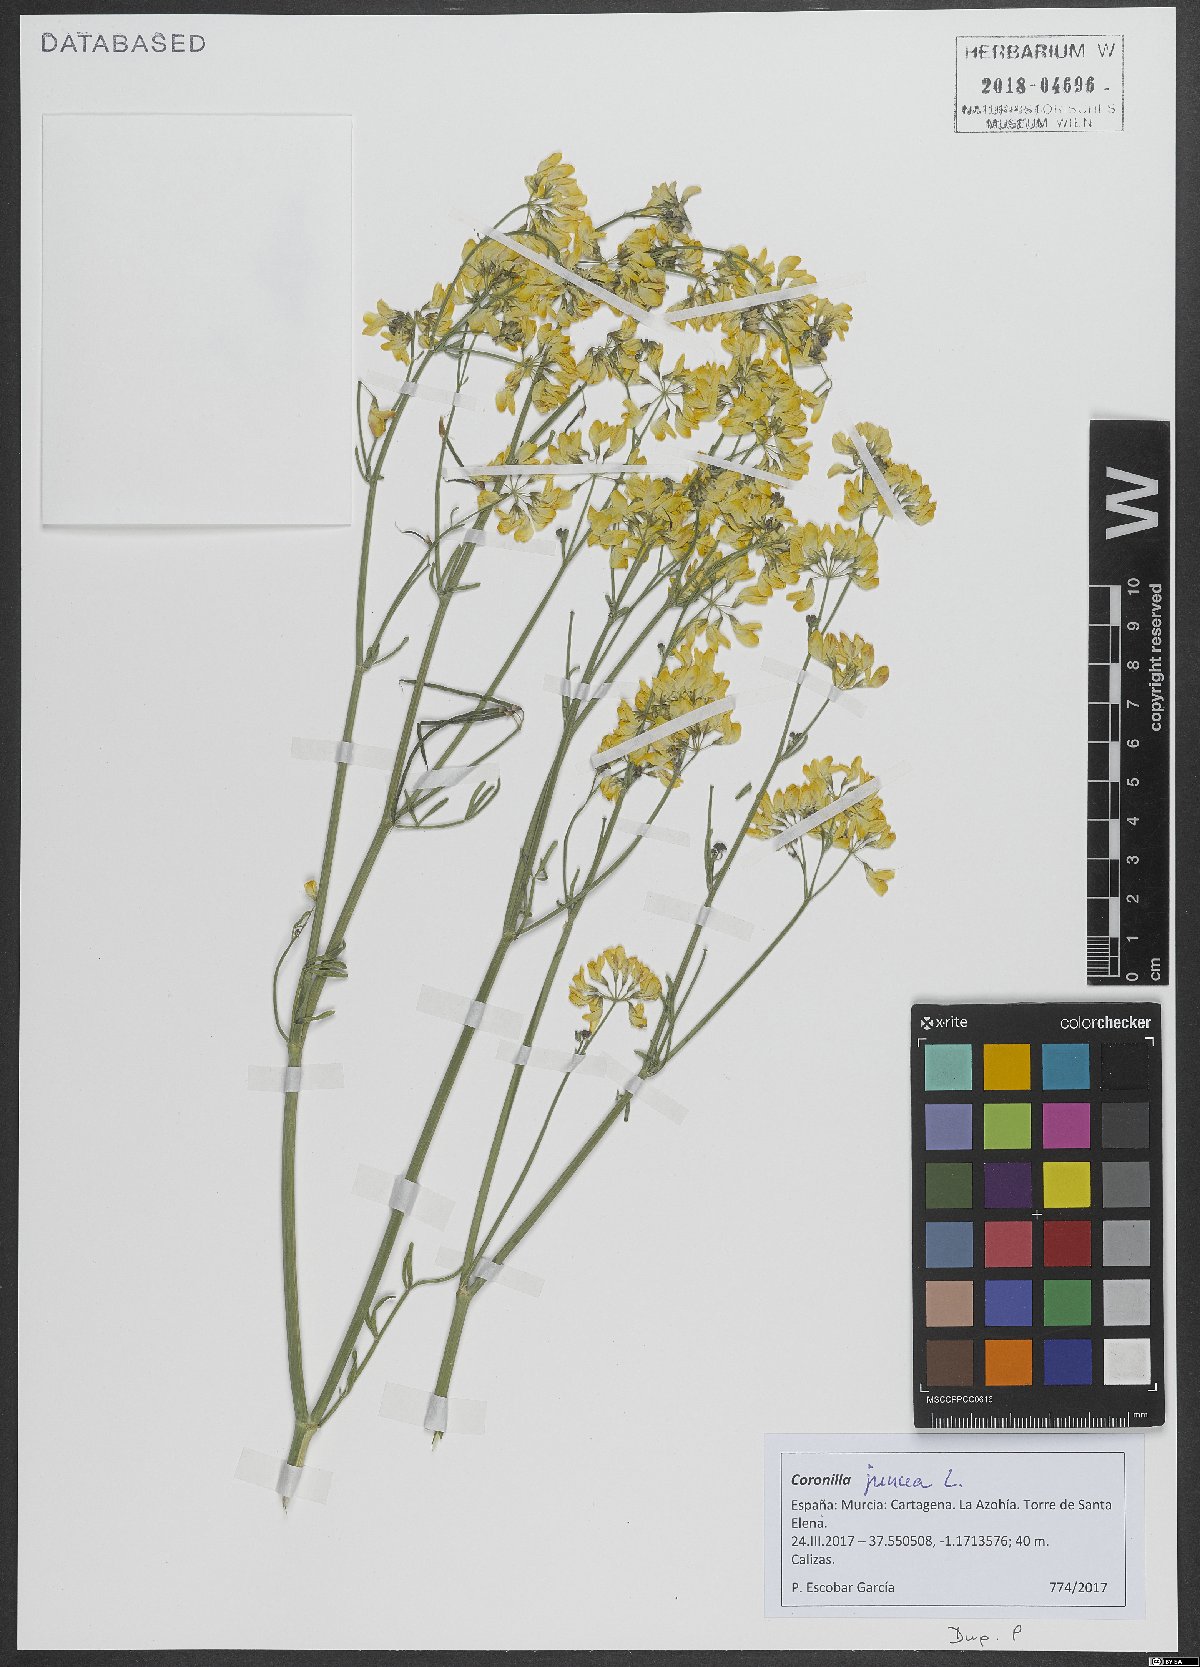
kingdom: Plantae
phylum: Tracheophyta
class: Magnoliopsida
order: Fabales
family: Fabaceae
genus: Coronilla
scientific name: Coronilla juncea
